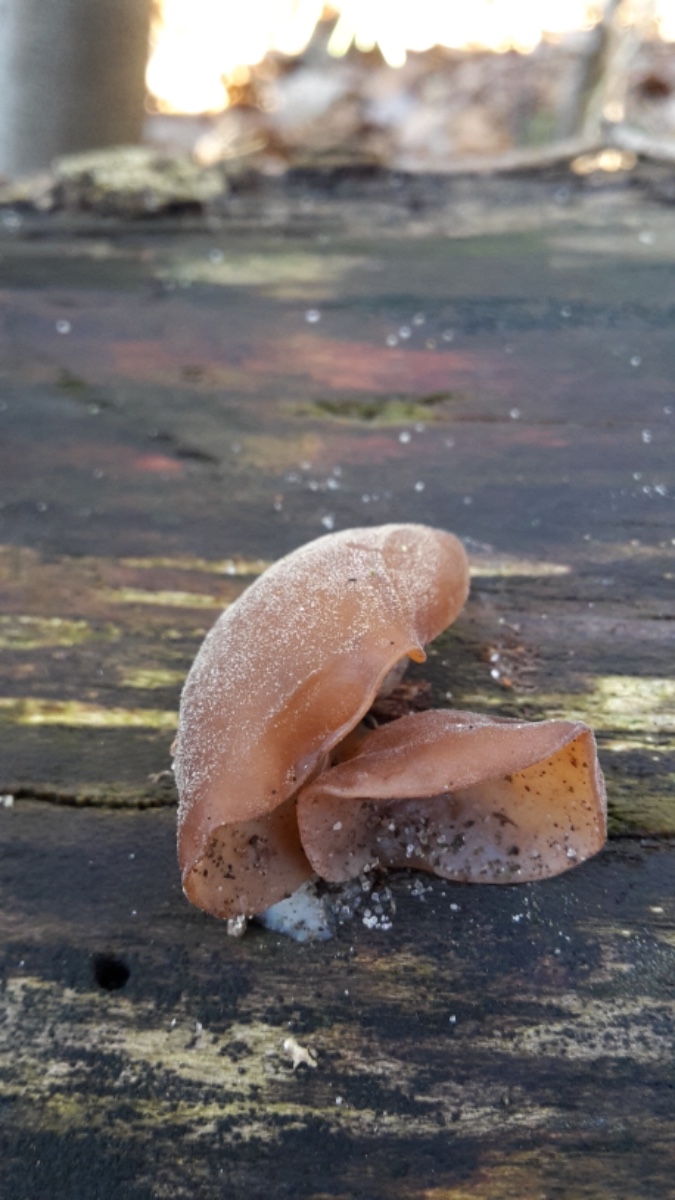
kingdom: Fungi
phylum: Basidiomycota
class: Agaricomycetes
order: Auriculariales
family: Auriculariaceae
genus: Auricularia
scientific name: Auricularia auricula-judae
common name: almindelig judasøre
